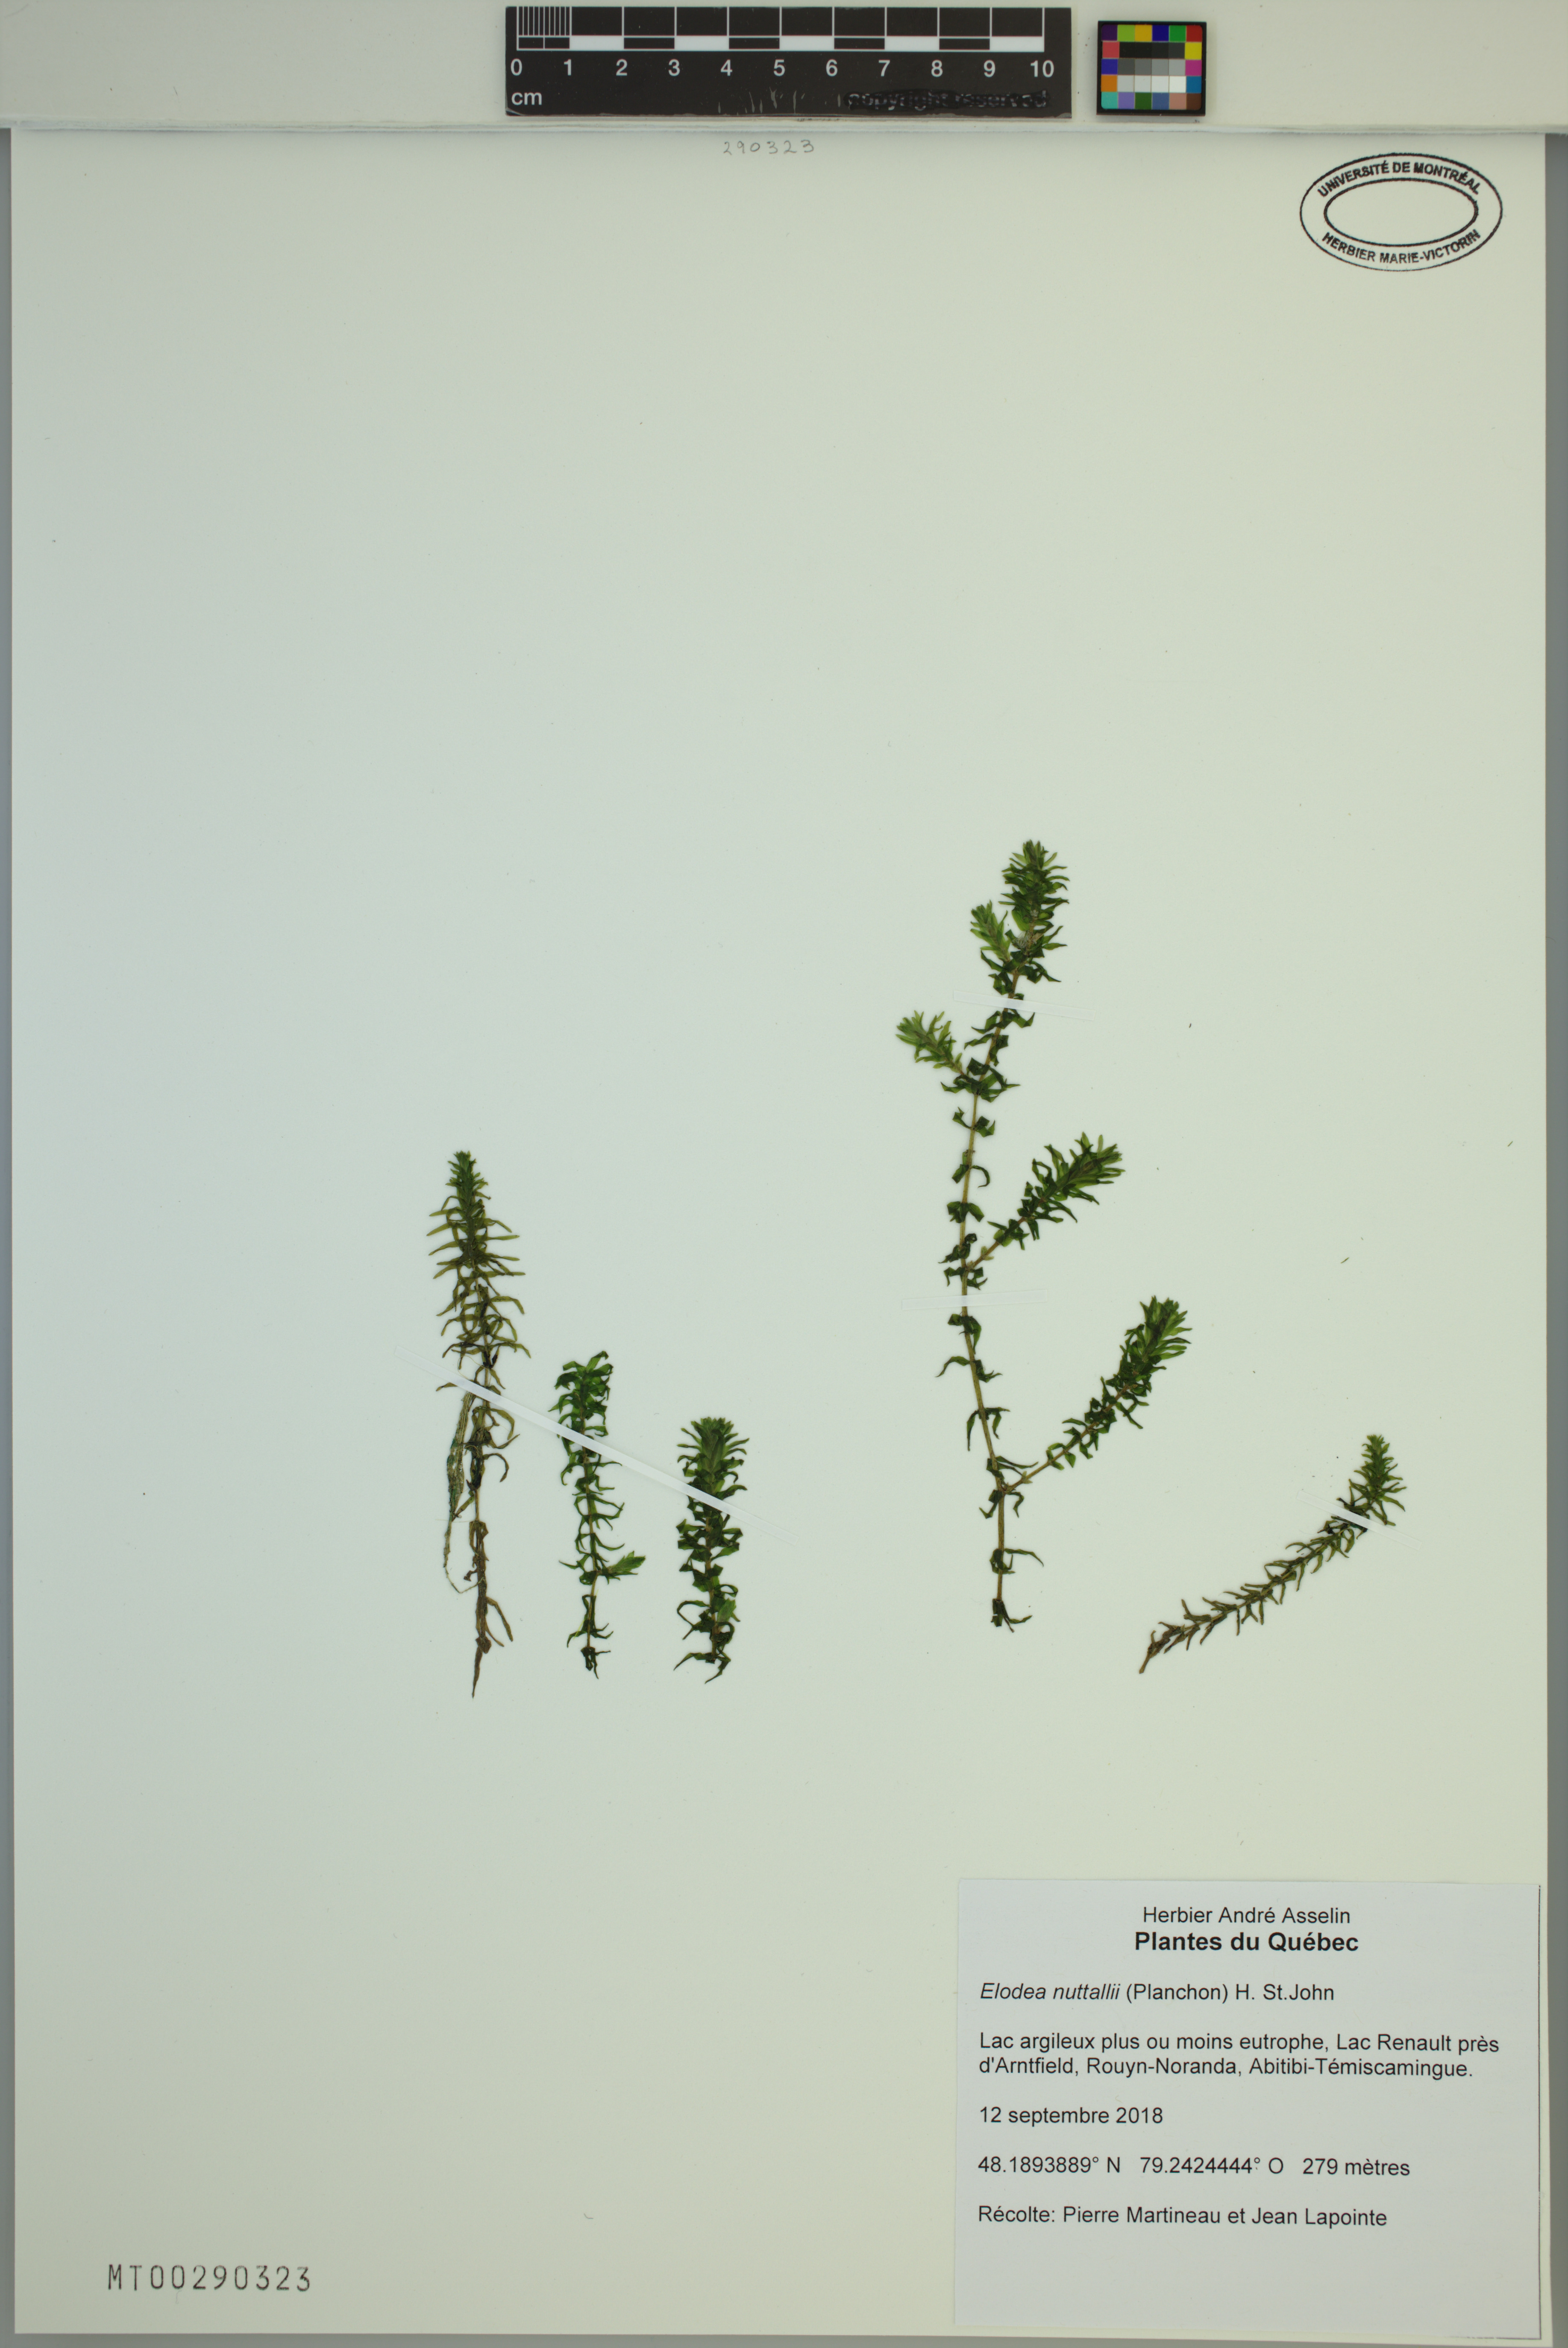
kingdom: Plantae
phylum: Tracheophyta
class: Liliopsida
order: Alismatales
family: Hydrocharitaceae
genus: Elodea
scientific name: Elodea nuttallii
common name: Nuttall's waterweed
